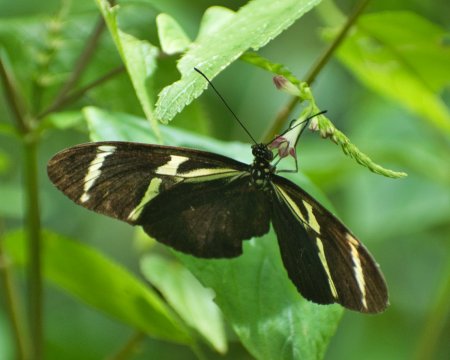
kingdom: Animalia
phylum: Arthropoda
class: Insecta
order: Lepidoptera
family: Nymphalidae
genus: Heliconius
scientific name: Heliconius sara
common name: Sara Longwing
